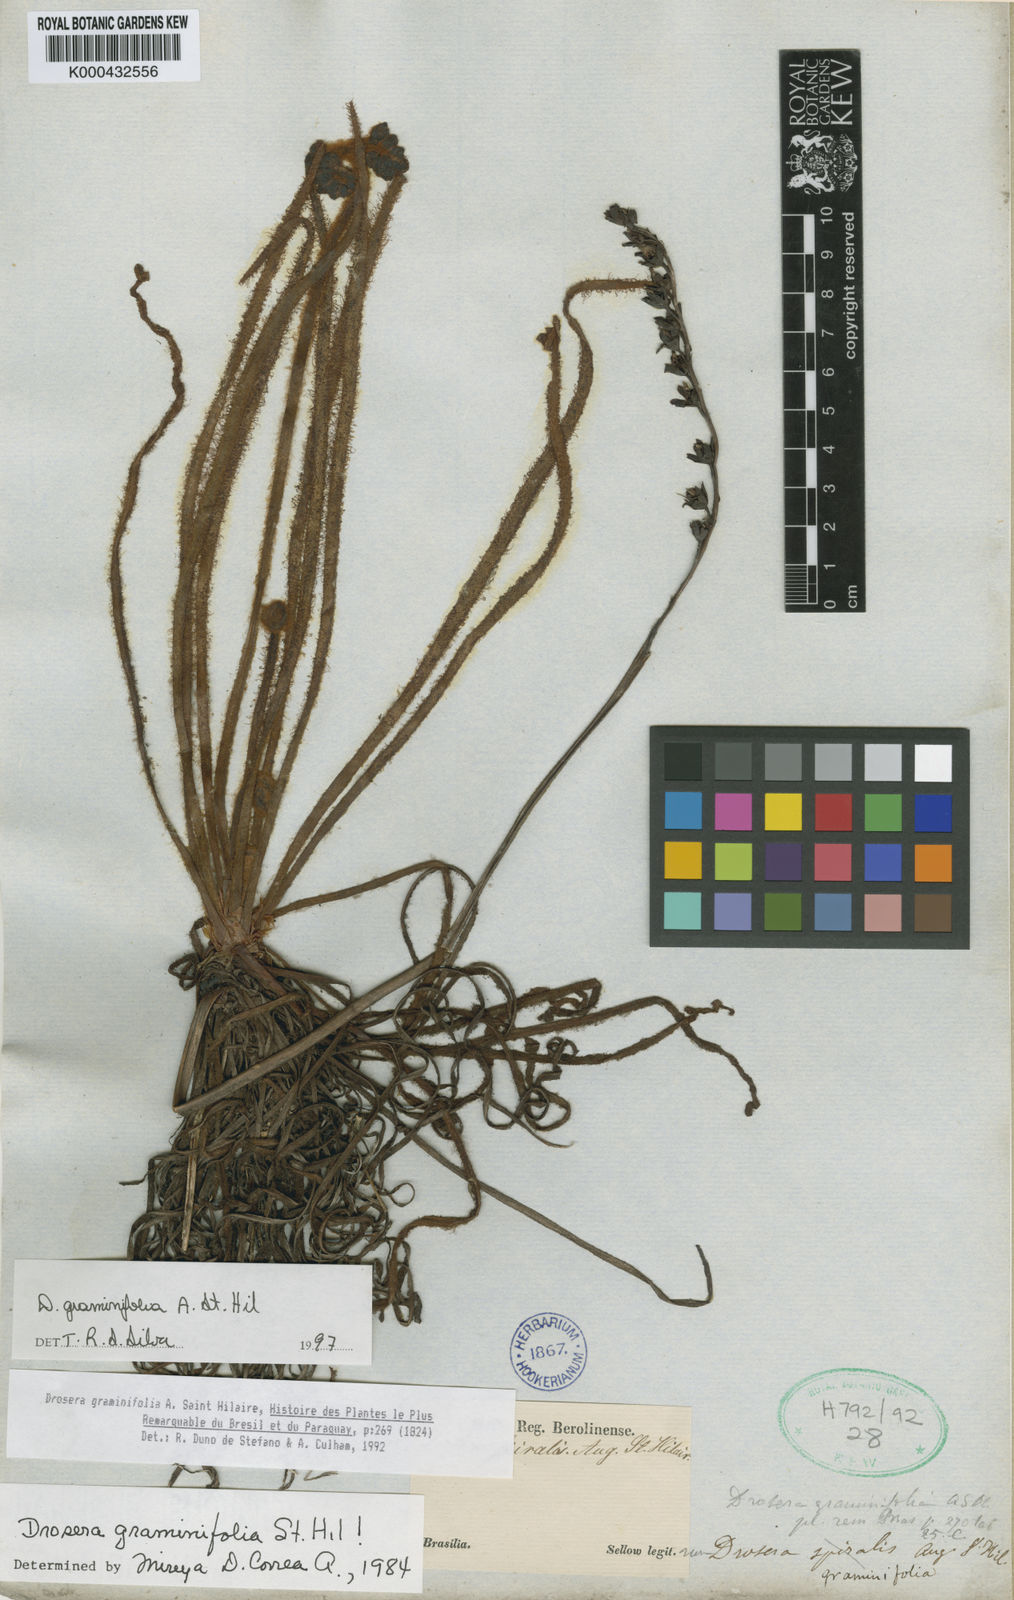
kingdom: Plantae
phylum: Tracheophyta
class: Magnoliopsida
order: Caryophyllales
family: Droseraceae
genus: Drosera
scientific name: Drosera graminifolia
